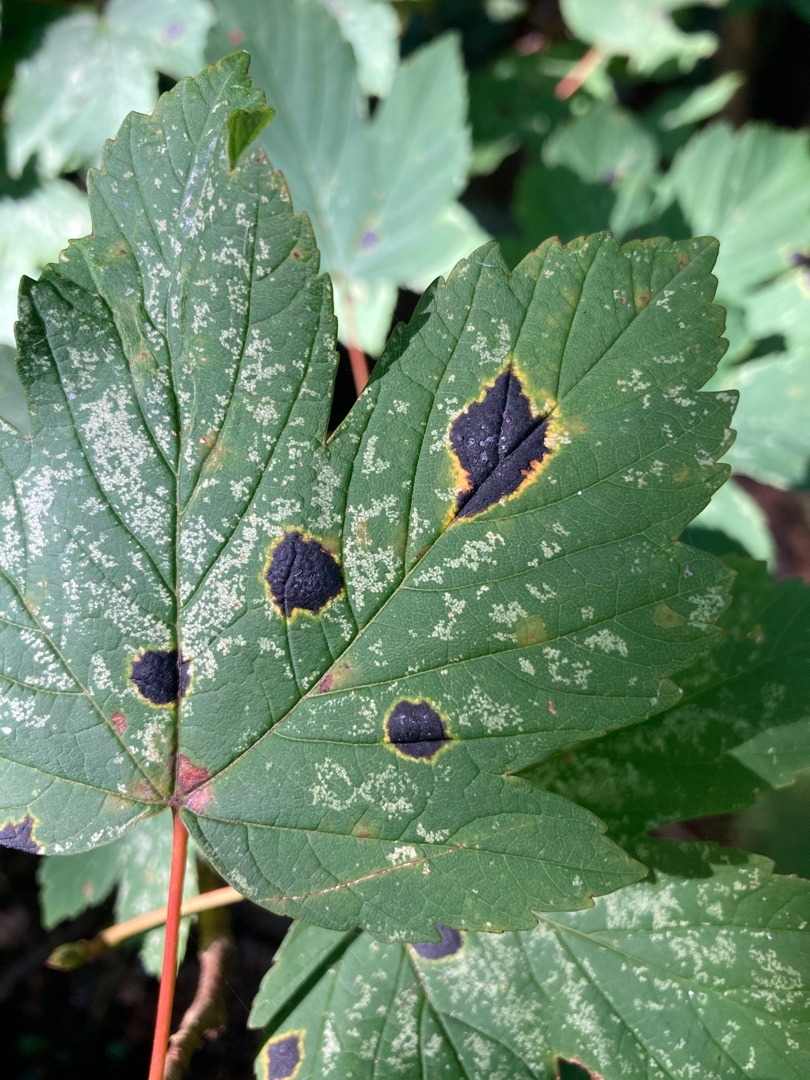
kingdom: Fungi
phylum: Ascomycota
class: Leotiomycetes
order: Rhytismatales
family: Rhytismataceae
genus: Rhytisma
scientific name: Rhytisma acerinum
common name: Ahorn-rynkeplet
